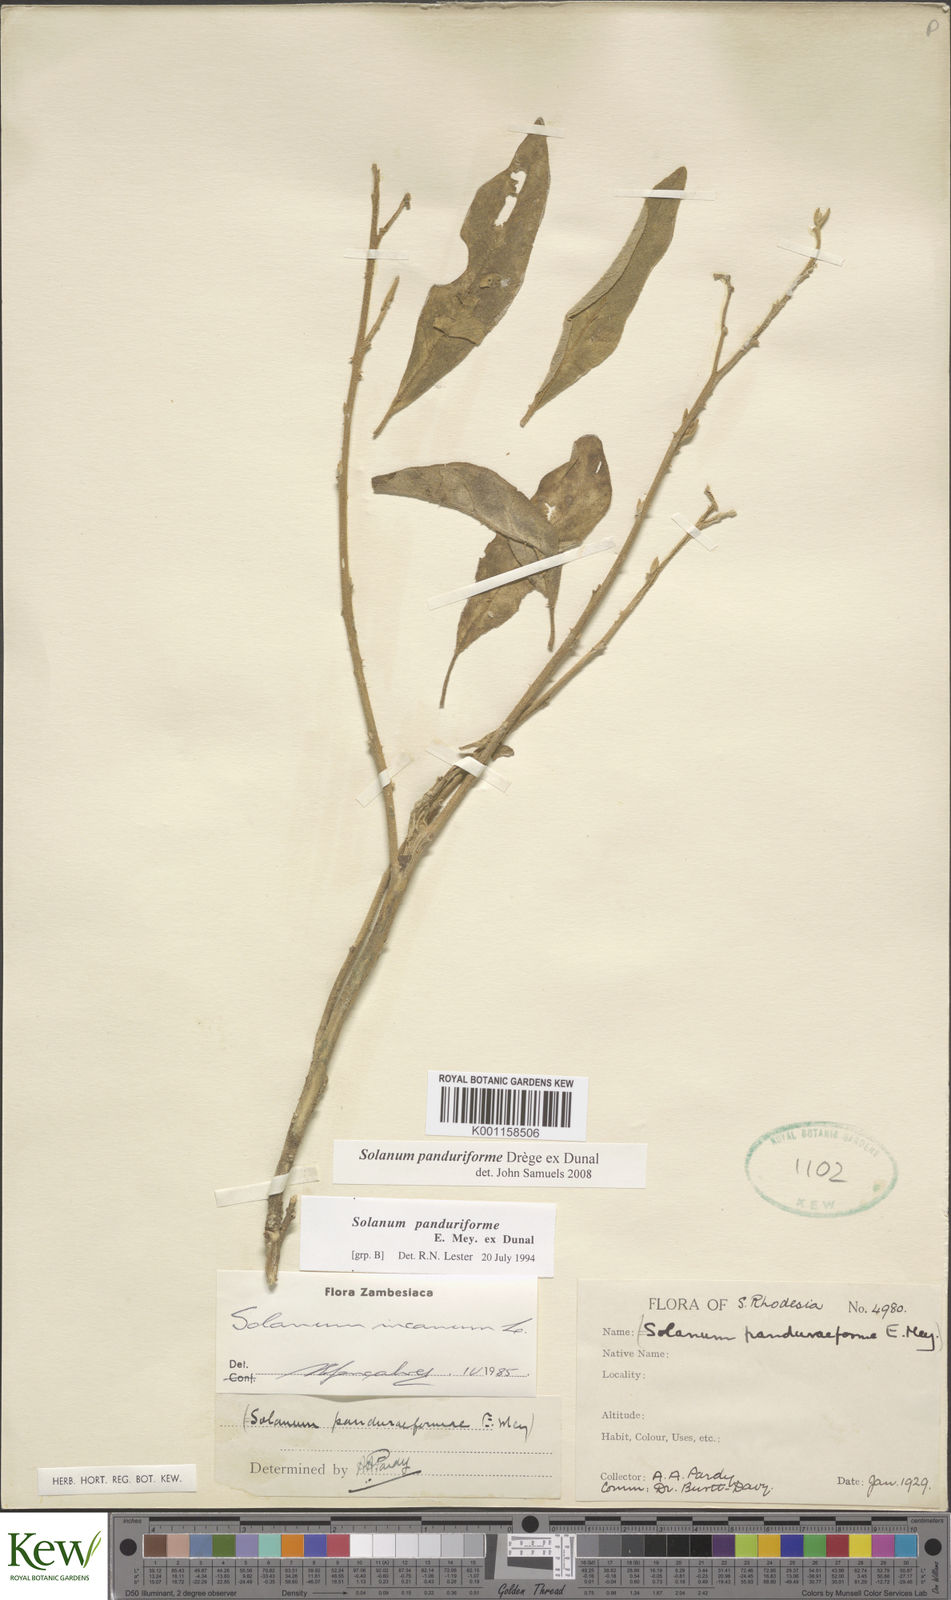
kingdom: Plantae
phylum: Tracheophyta
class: Magnoliopsida
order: Solanales
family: Solanaceae
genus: Solanum
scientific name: Solanum campylacanthum
